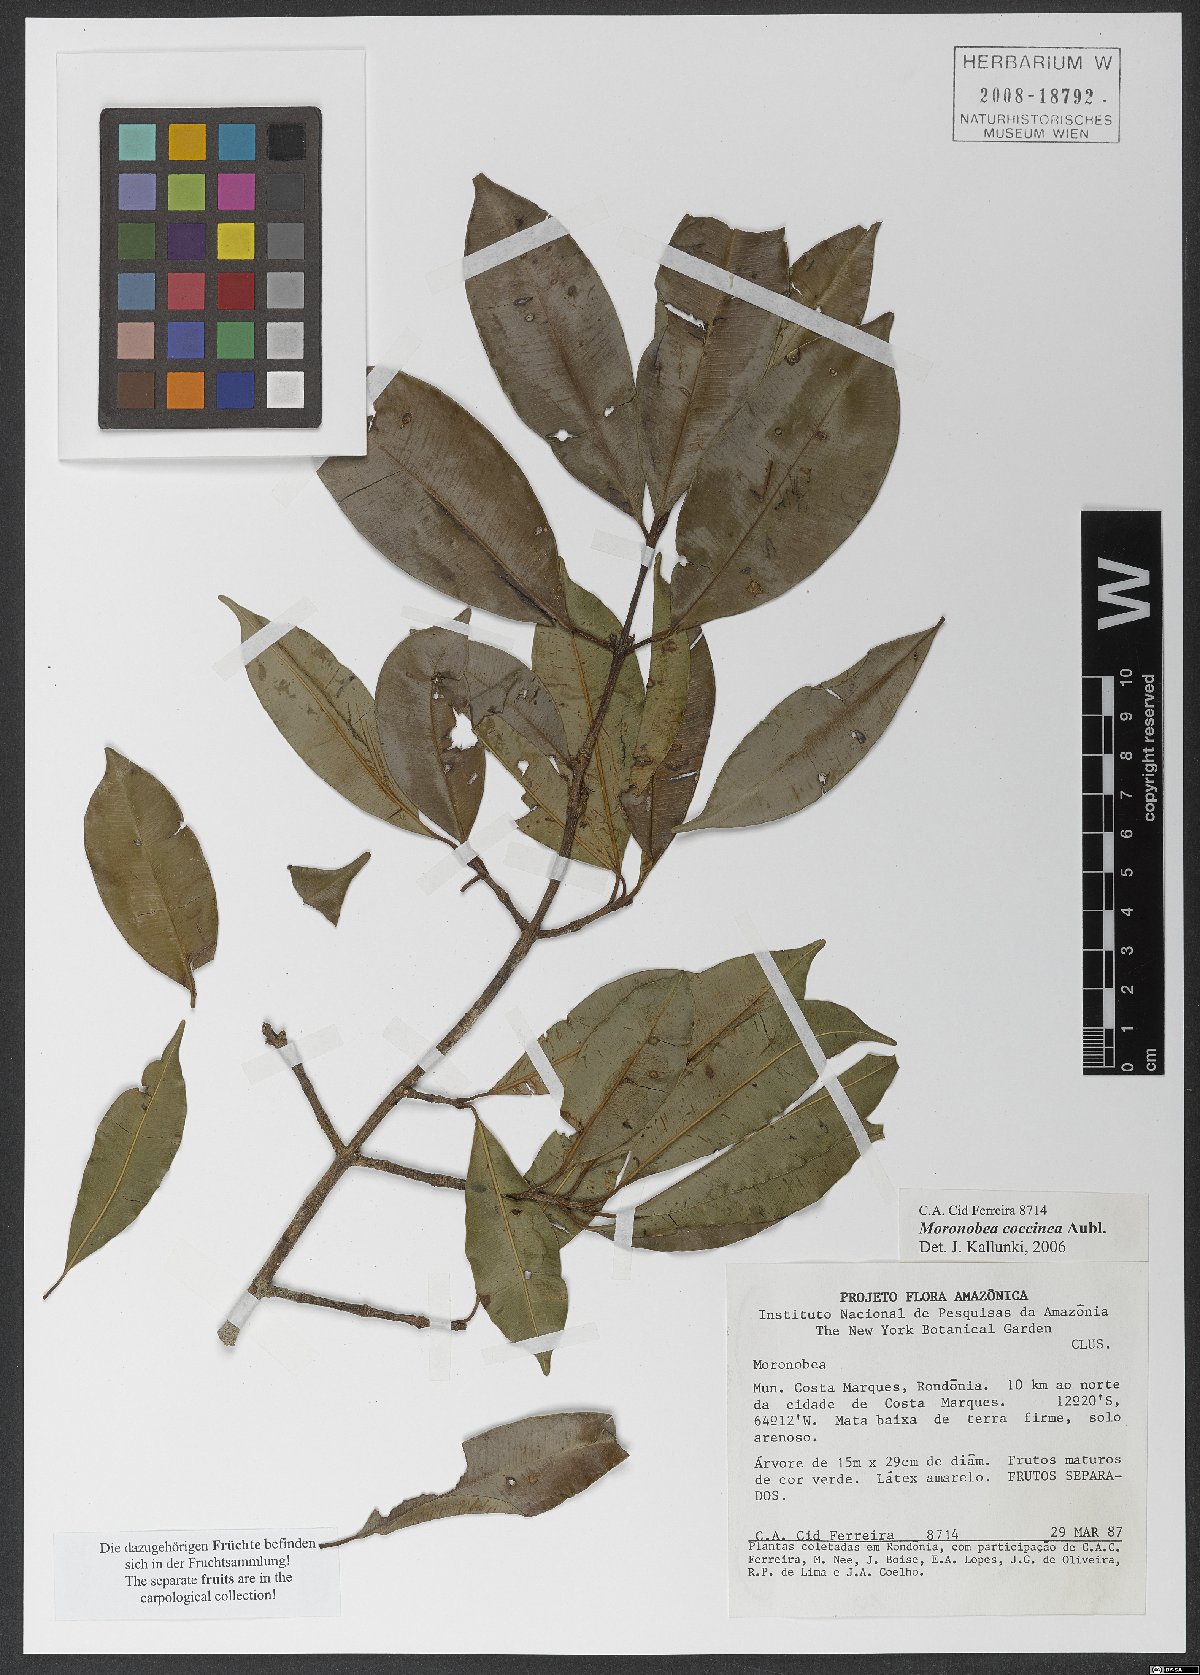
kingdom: Plantae
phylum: Tracheophyta
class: Magnoliopsida
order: Malpighiales
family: Clusiaceae
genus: Moronobea
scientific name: Moronobea coccinea
